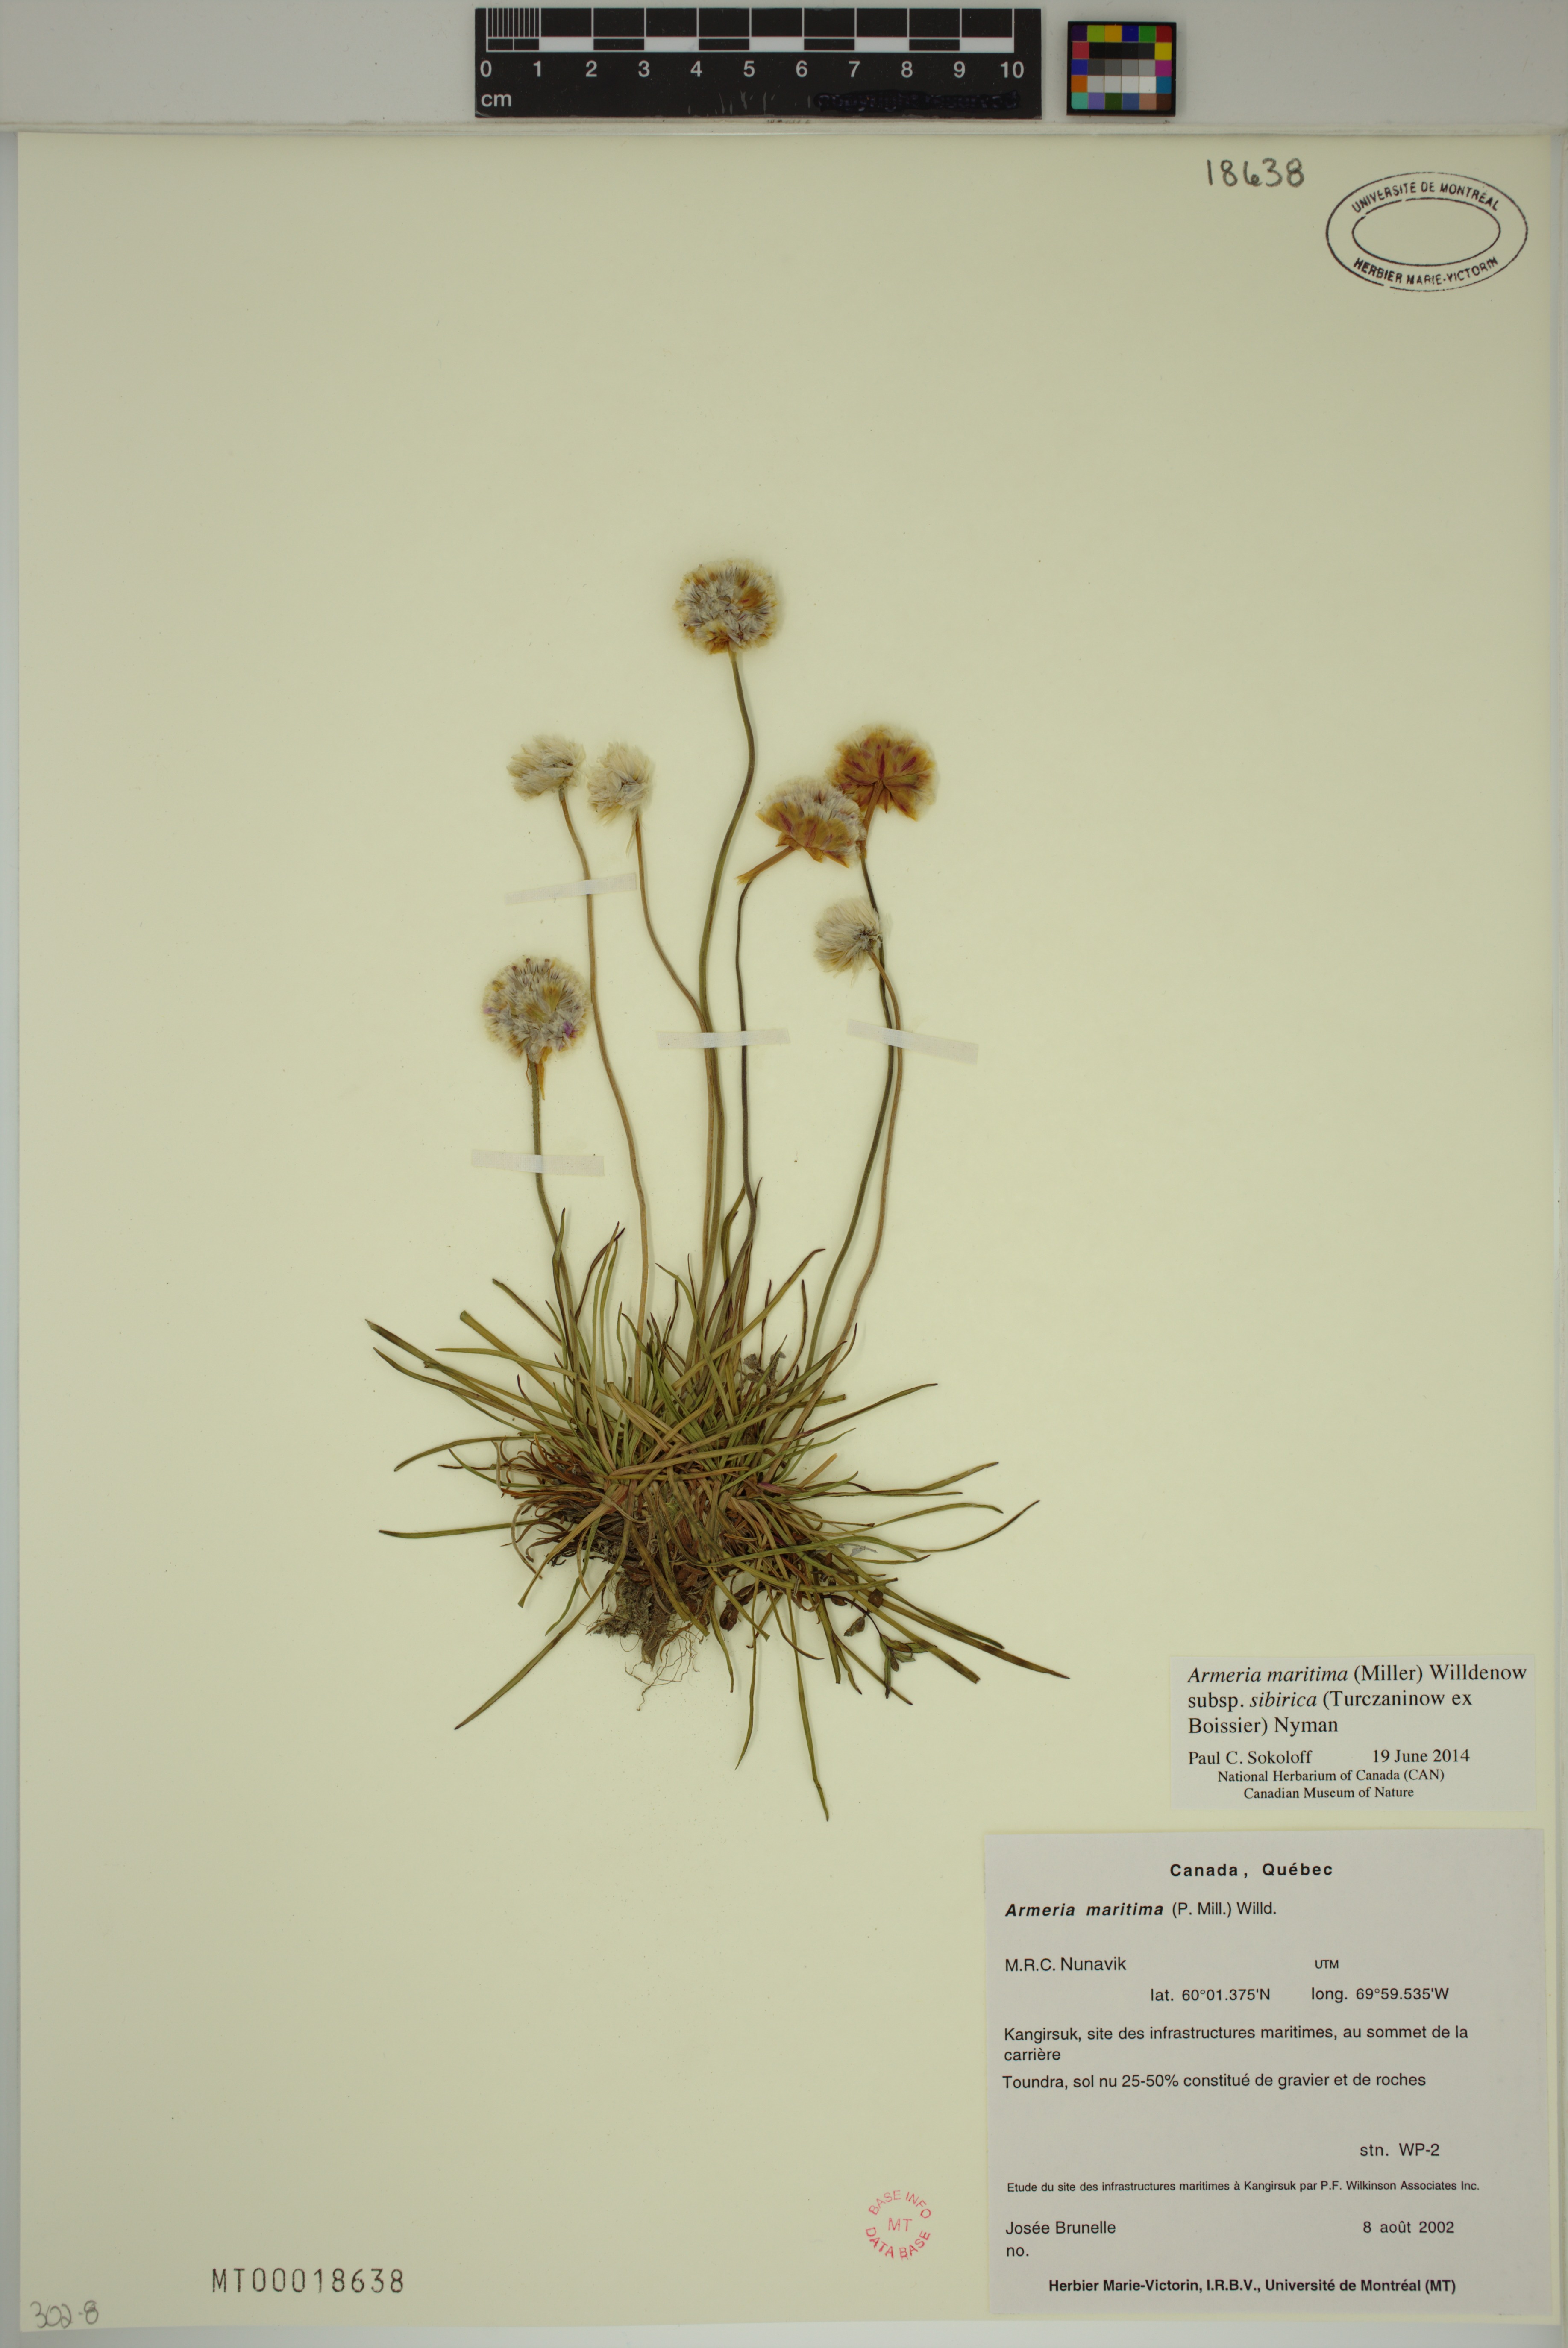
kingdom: Plantae
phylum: Tracheophyta
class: Magnoliopsida
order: Caryophyllales
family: Plumbaginaceae
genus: Armeria
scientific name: Armeria maritima
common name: Thrift
